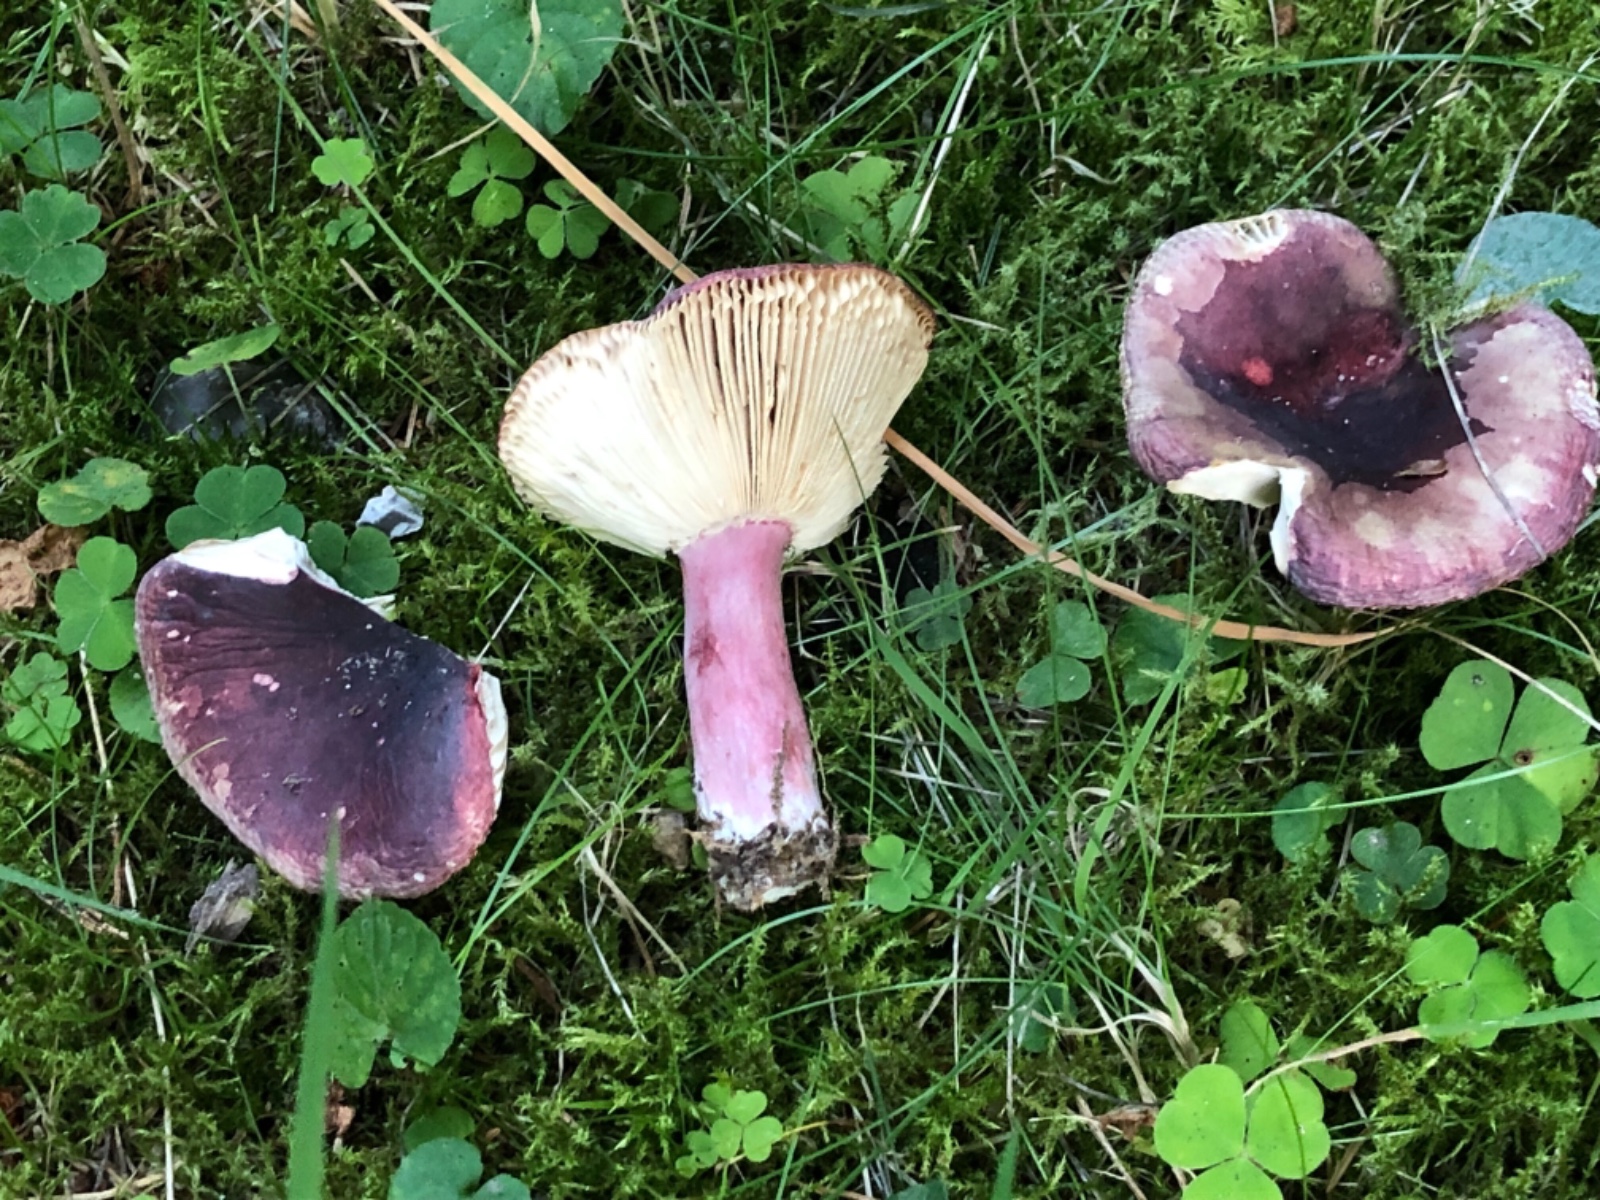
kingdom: Fungi
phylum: Basidiomycota
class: Agaricomycetes
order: Russulales
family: Russulaceae
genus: Russula
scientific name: Russula queletii
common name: Quélets skørhat
